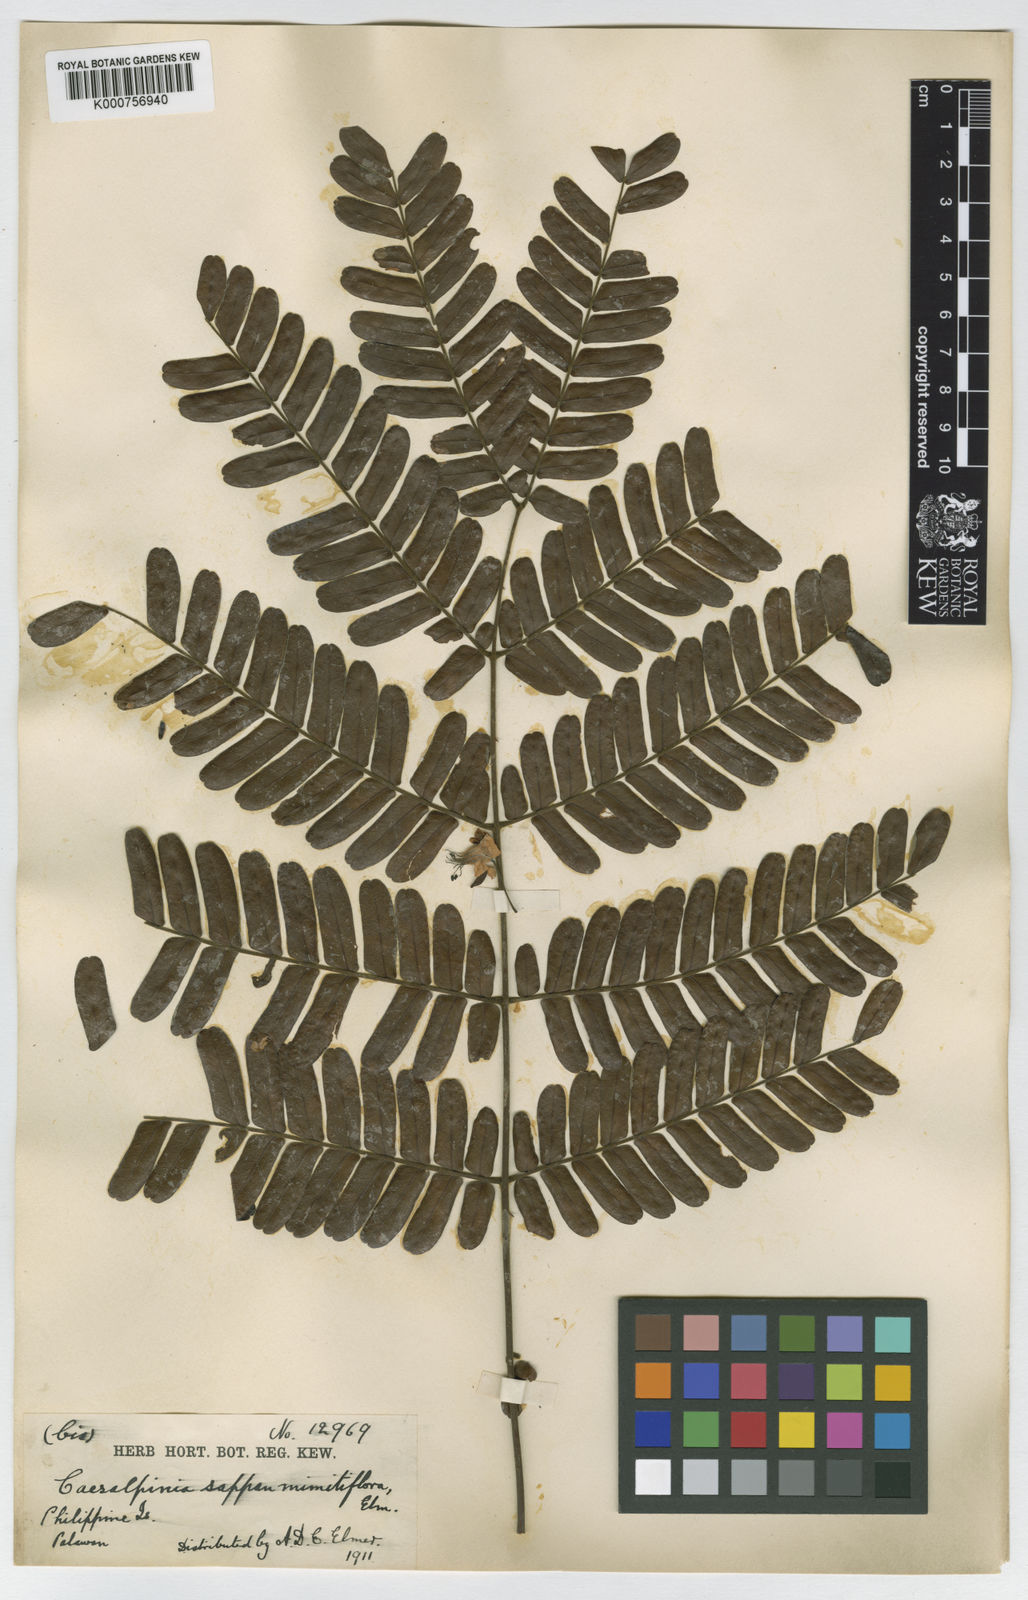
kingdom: Plantae
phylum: Tracheophyta
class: Magnoliopsida
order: Fabales
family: Fabaceae
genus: Caesalpinia
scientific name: Caesalpinia
